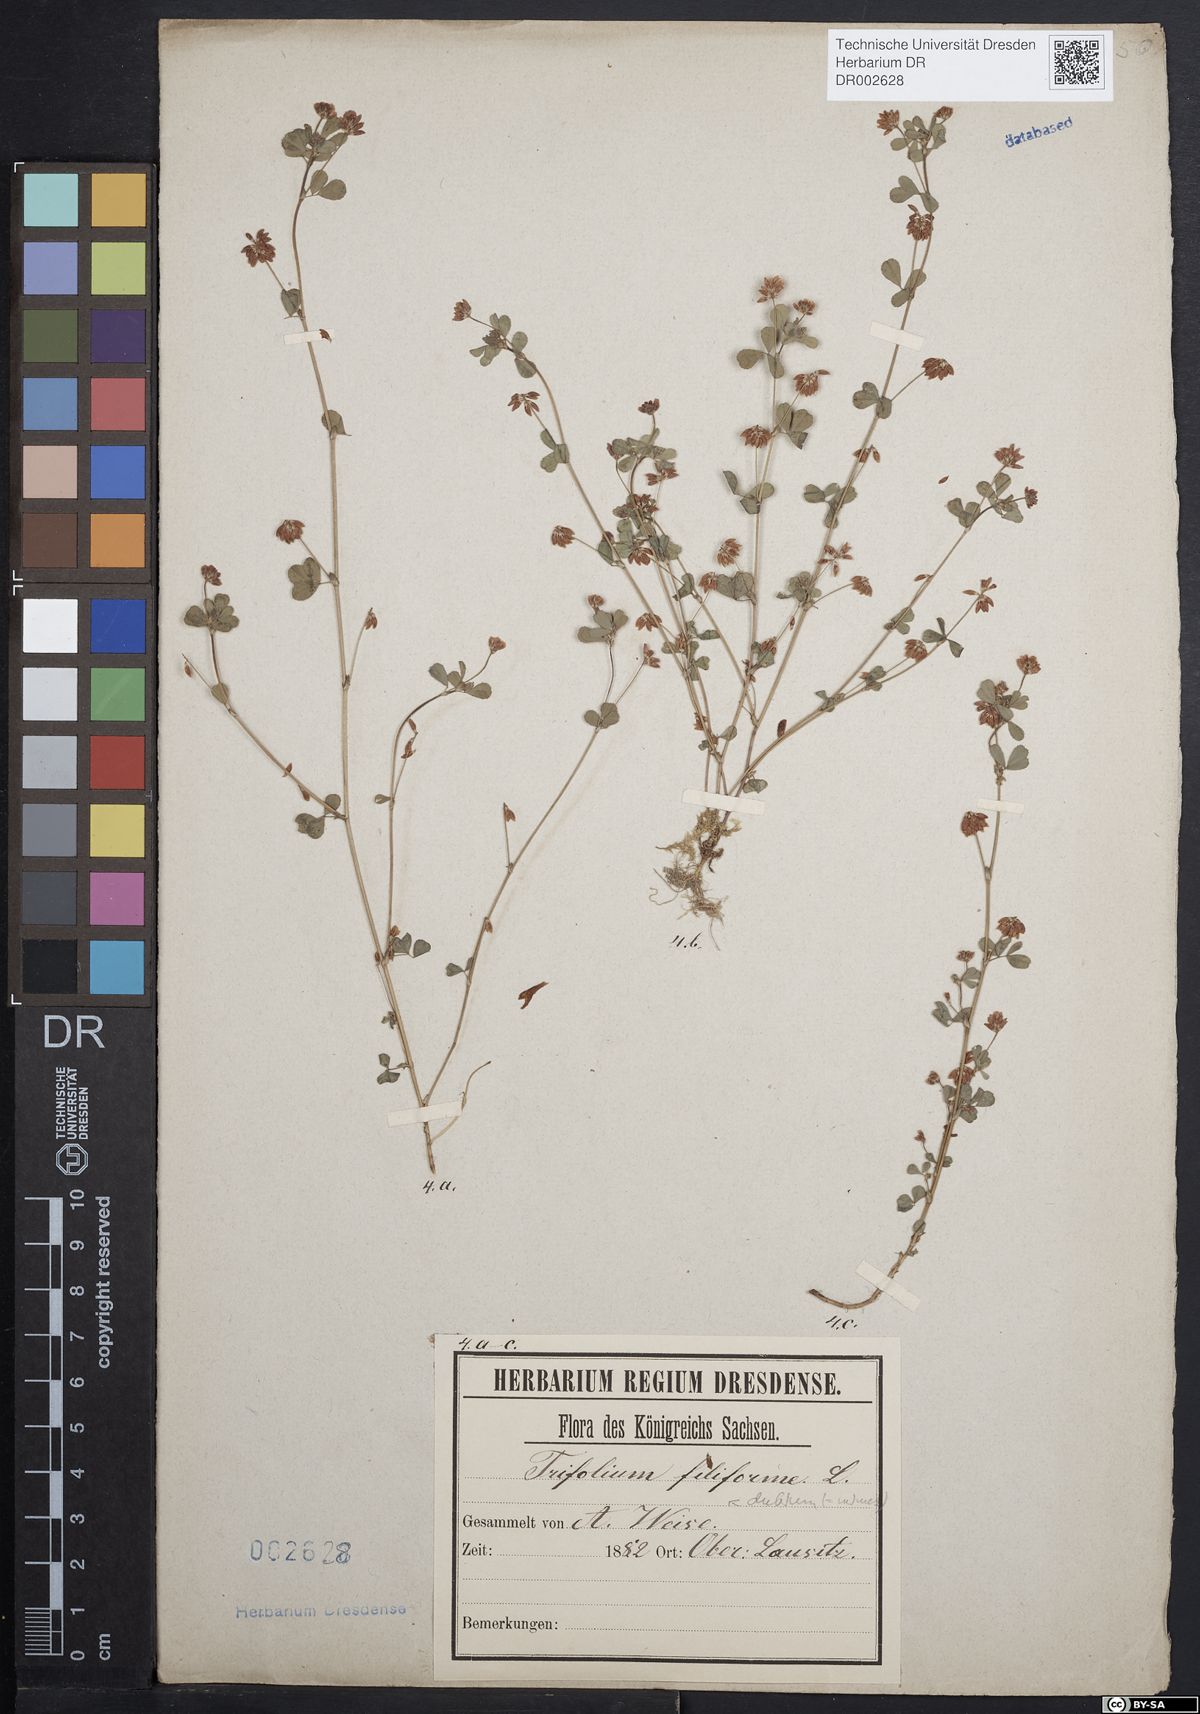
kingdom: Plantae
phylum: Tracheophyta
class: Magnoliopsida
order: Fabales
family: Fabaceae
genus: Trifolium
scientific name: Trifolium dubium
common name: Suckling clover
